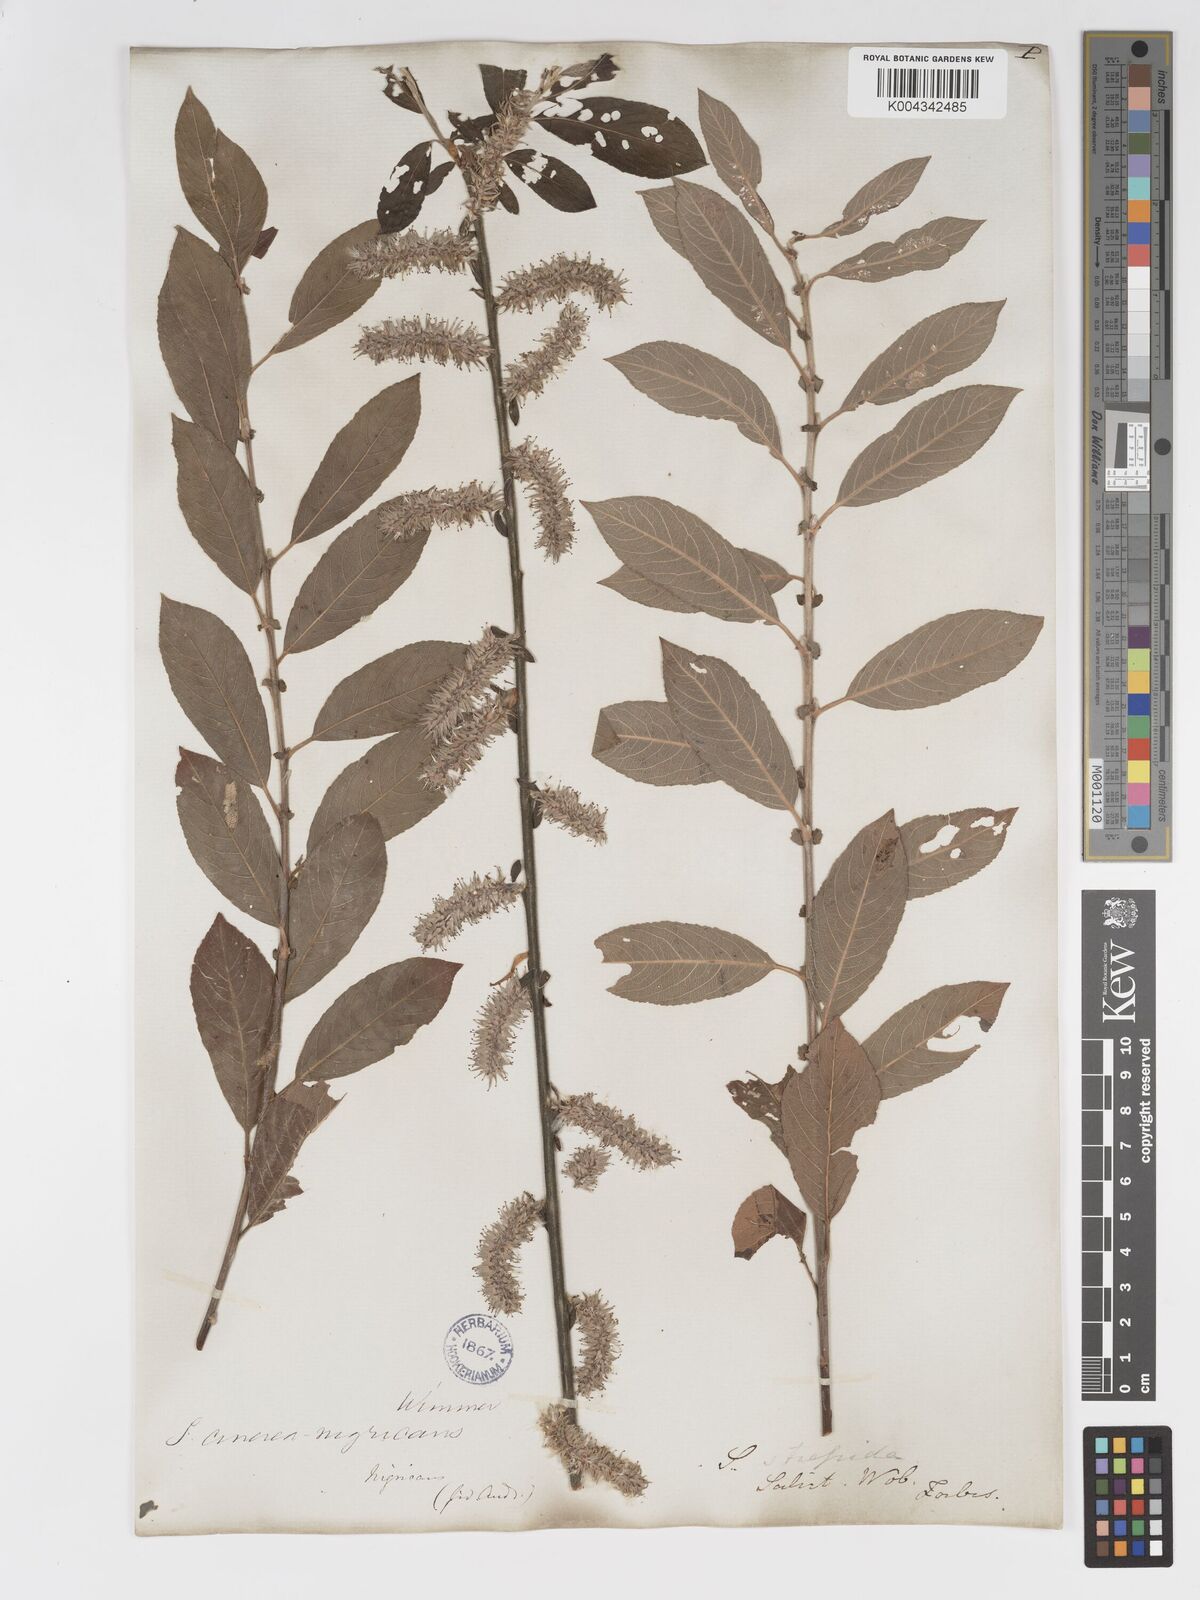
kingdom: Plantae
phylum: Tracheophyta
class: Magnoliopsida
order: Malpighiales
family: Salicaceae
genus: Salix
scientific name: Salix
